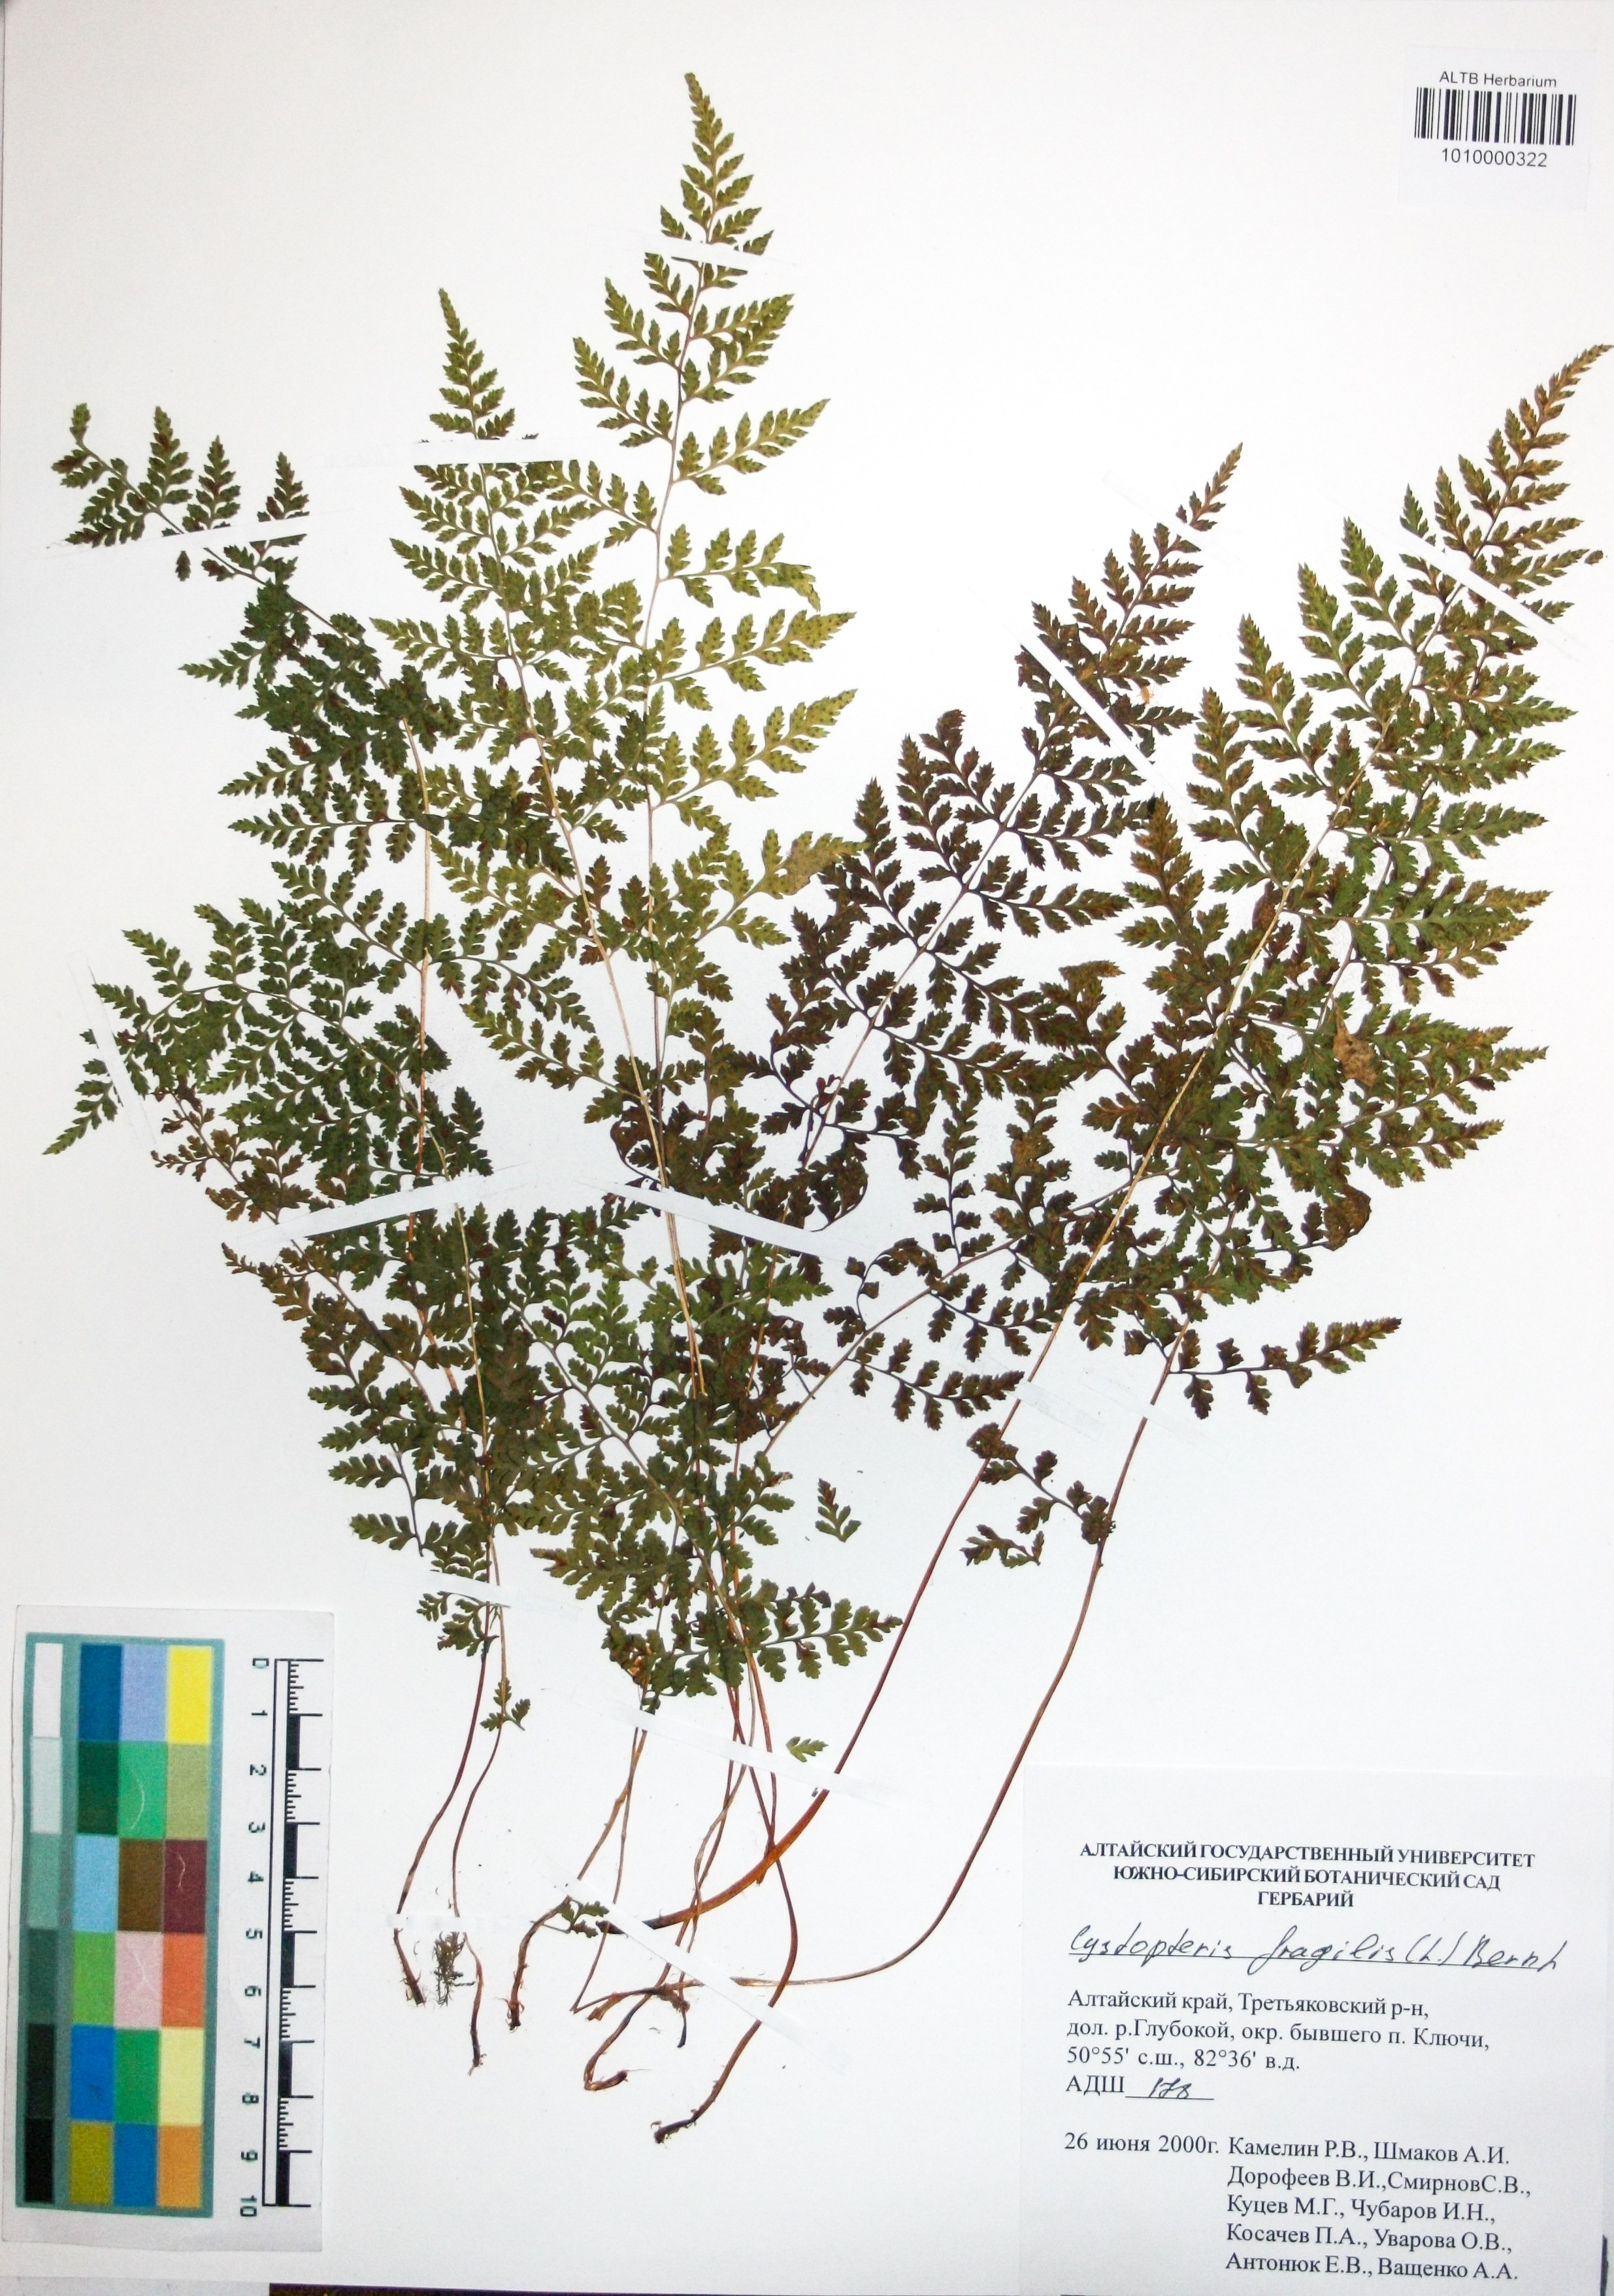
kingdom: Plantae
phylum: Tracheophyta
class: Polypodiopsida
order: Polypodiales
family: Cystopteridaceae
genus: Cystopteris
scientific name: Cystopteris fragilis
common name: Brittle bladder fern
